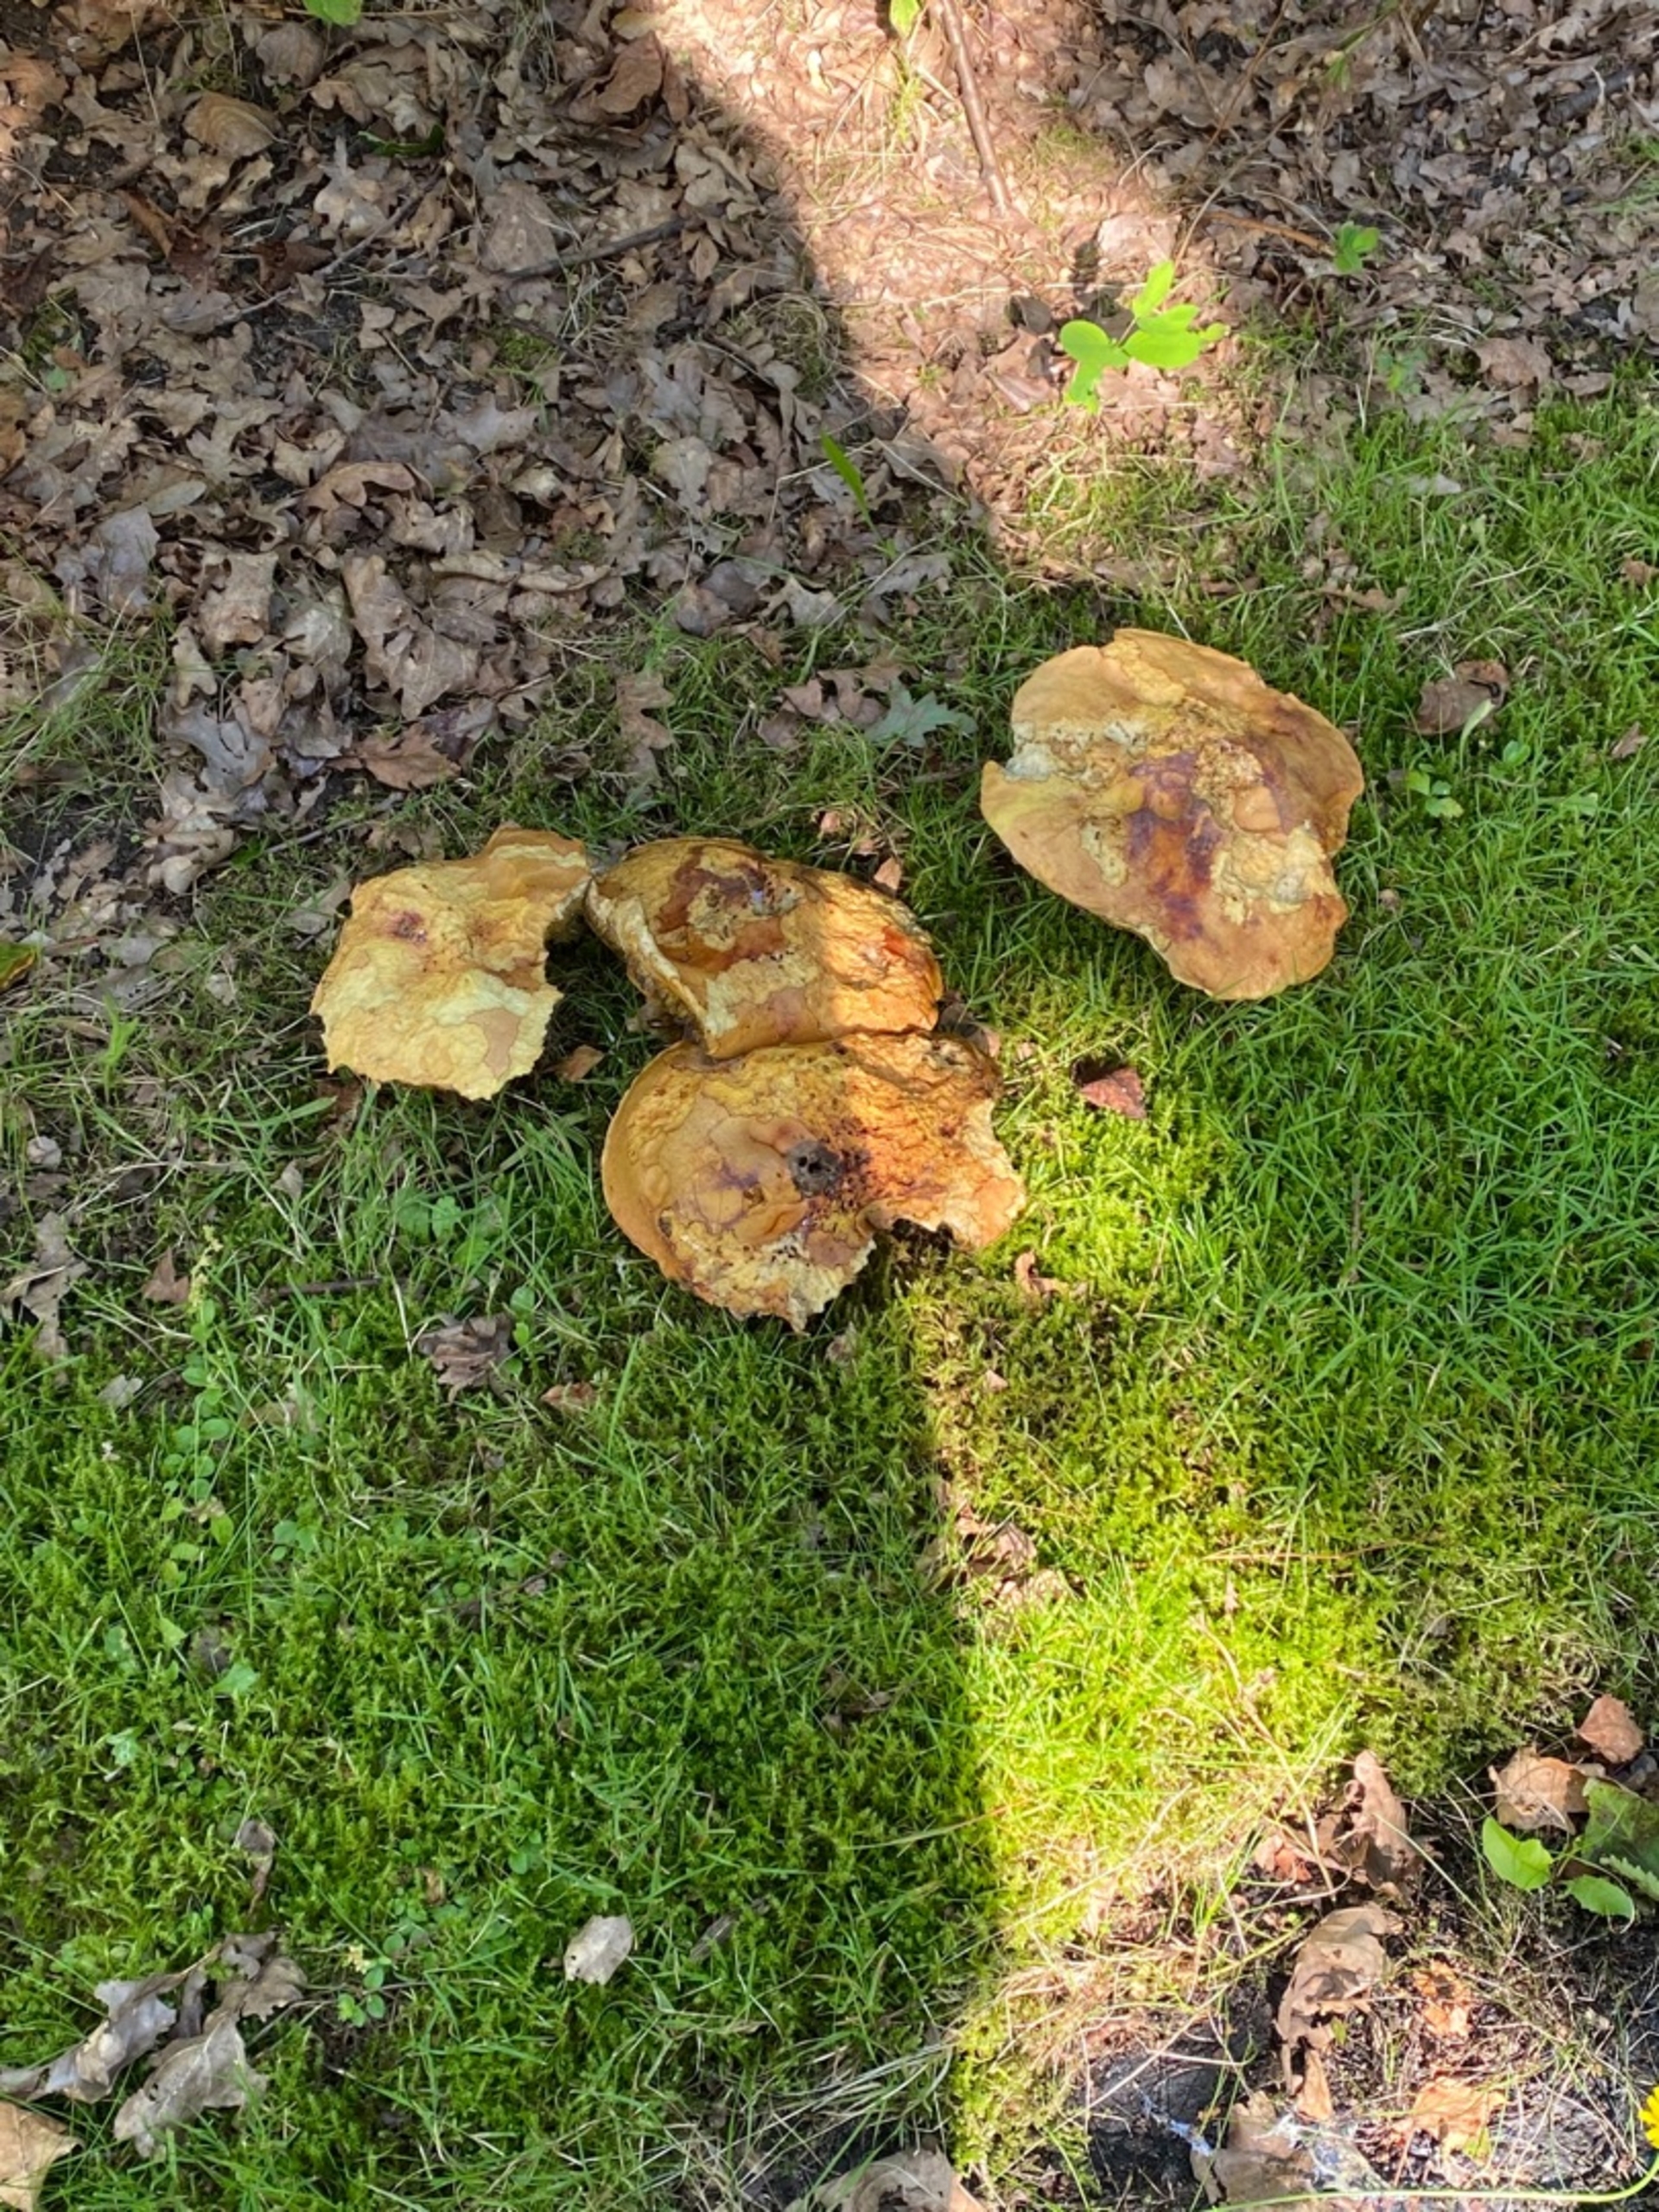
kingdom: Fungi
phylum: Basidiomycota
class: Agaricomycetes
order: Boletales
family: Boletaceae
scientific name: Boletaceae
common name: Rørhatfamilien
